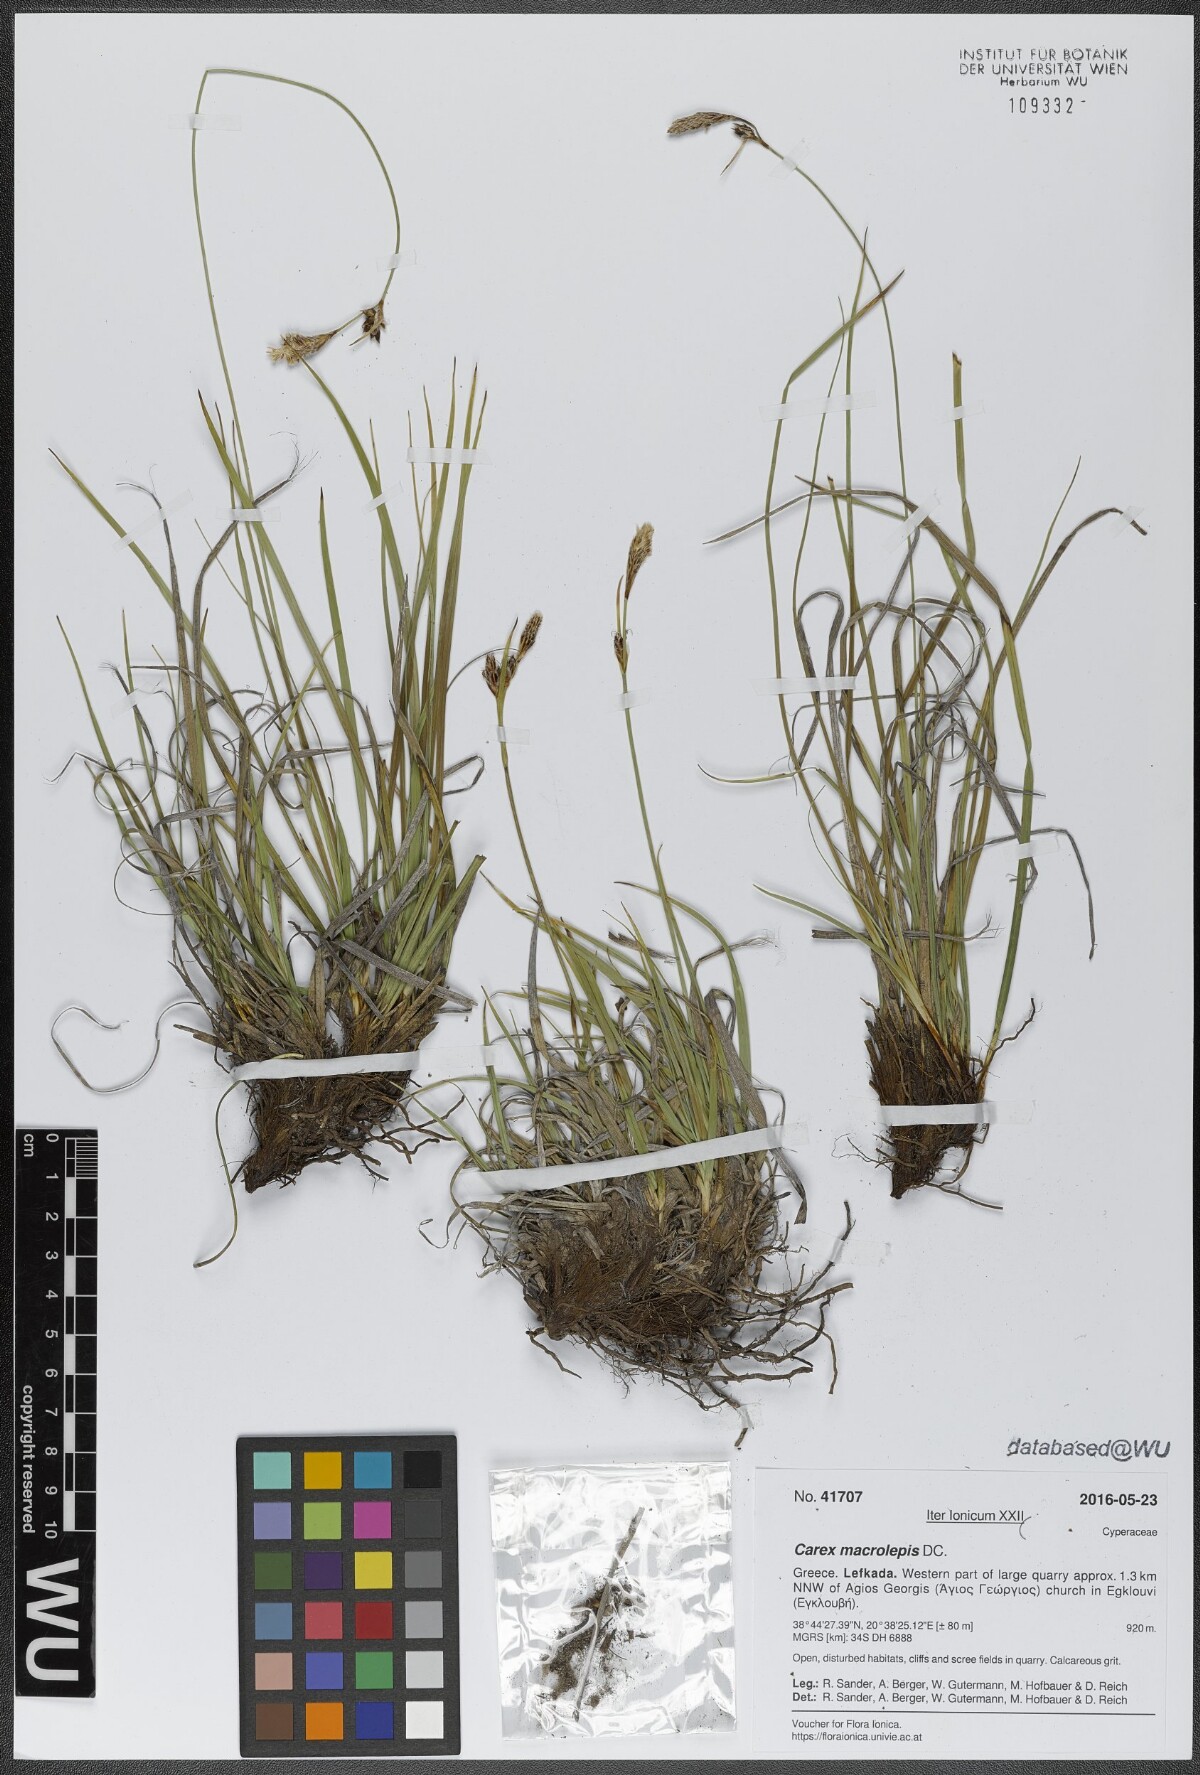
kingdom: Plantae
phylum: Tracheophyta
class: Liliopsida
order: Poales
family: Cyperaceae
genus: Carex
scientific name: Carex macrolepis
